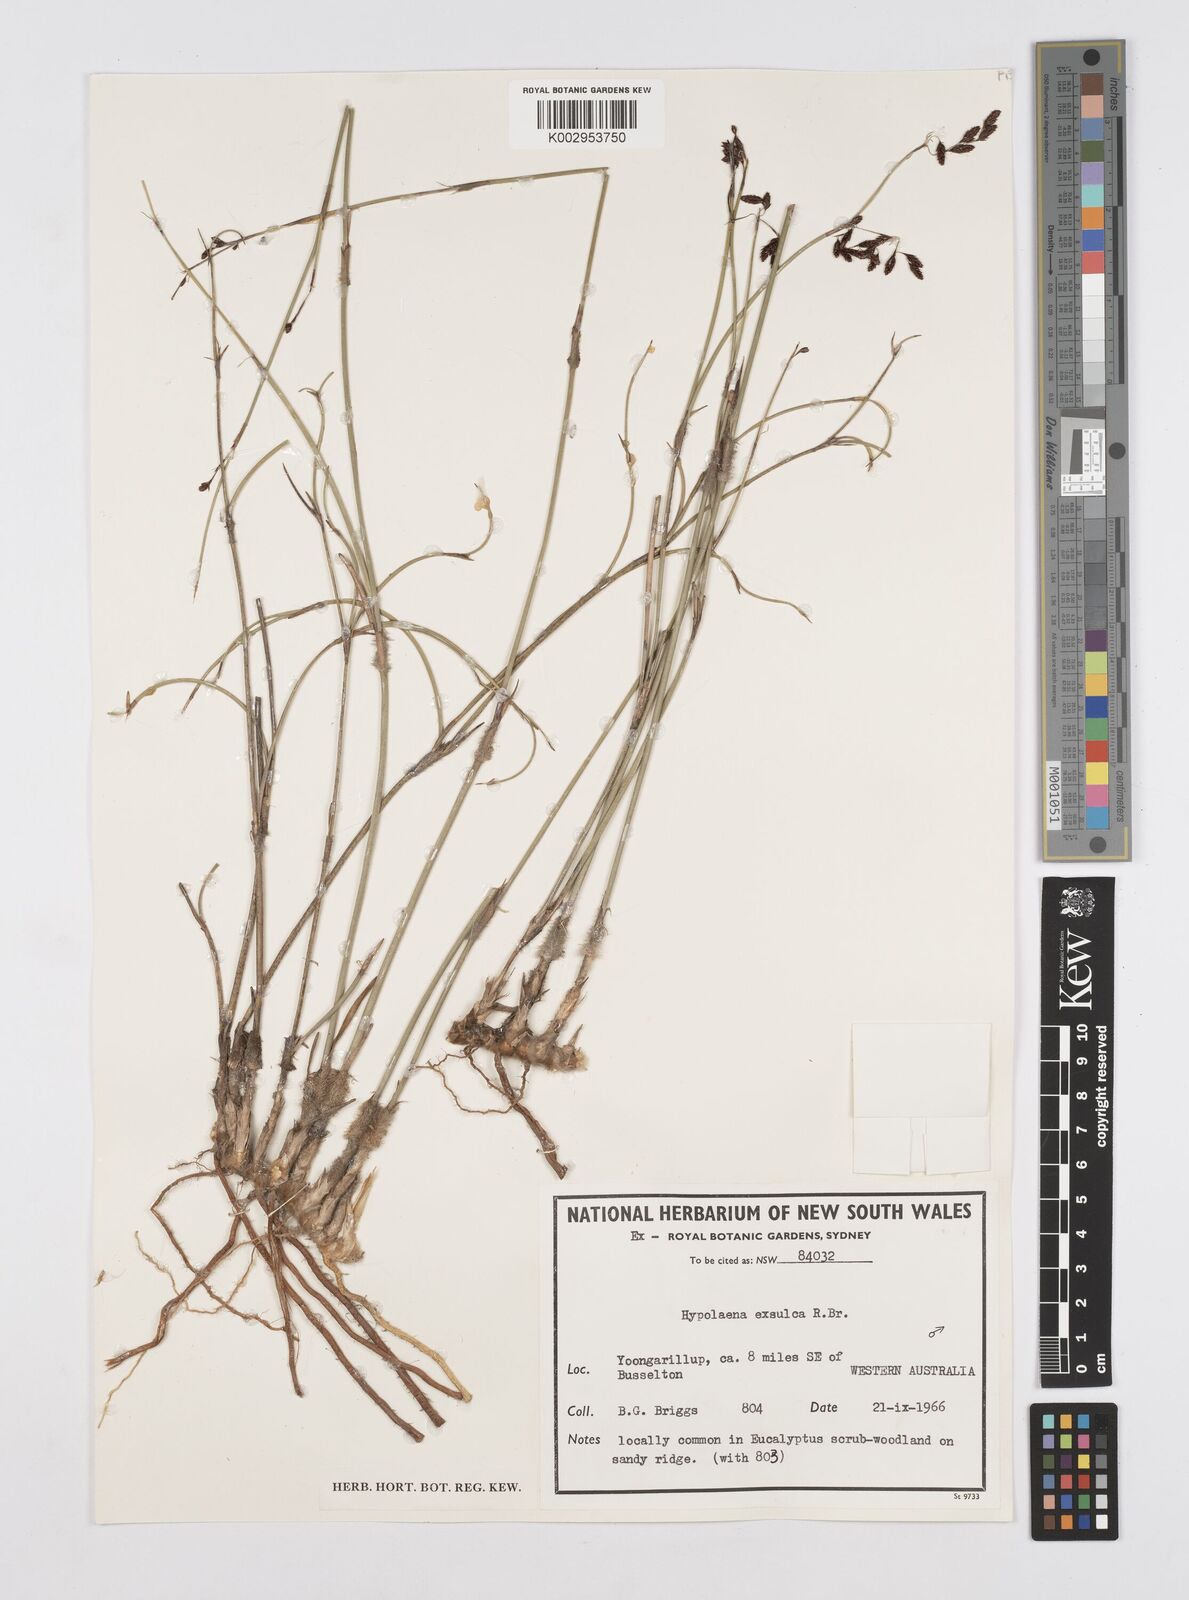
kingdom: Plantae
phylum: Tracheophyta
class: Liliopsida
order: Poales
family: Restionaceae
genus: Hypolaena
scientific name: Hypolaena exsulca
